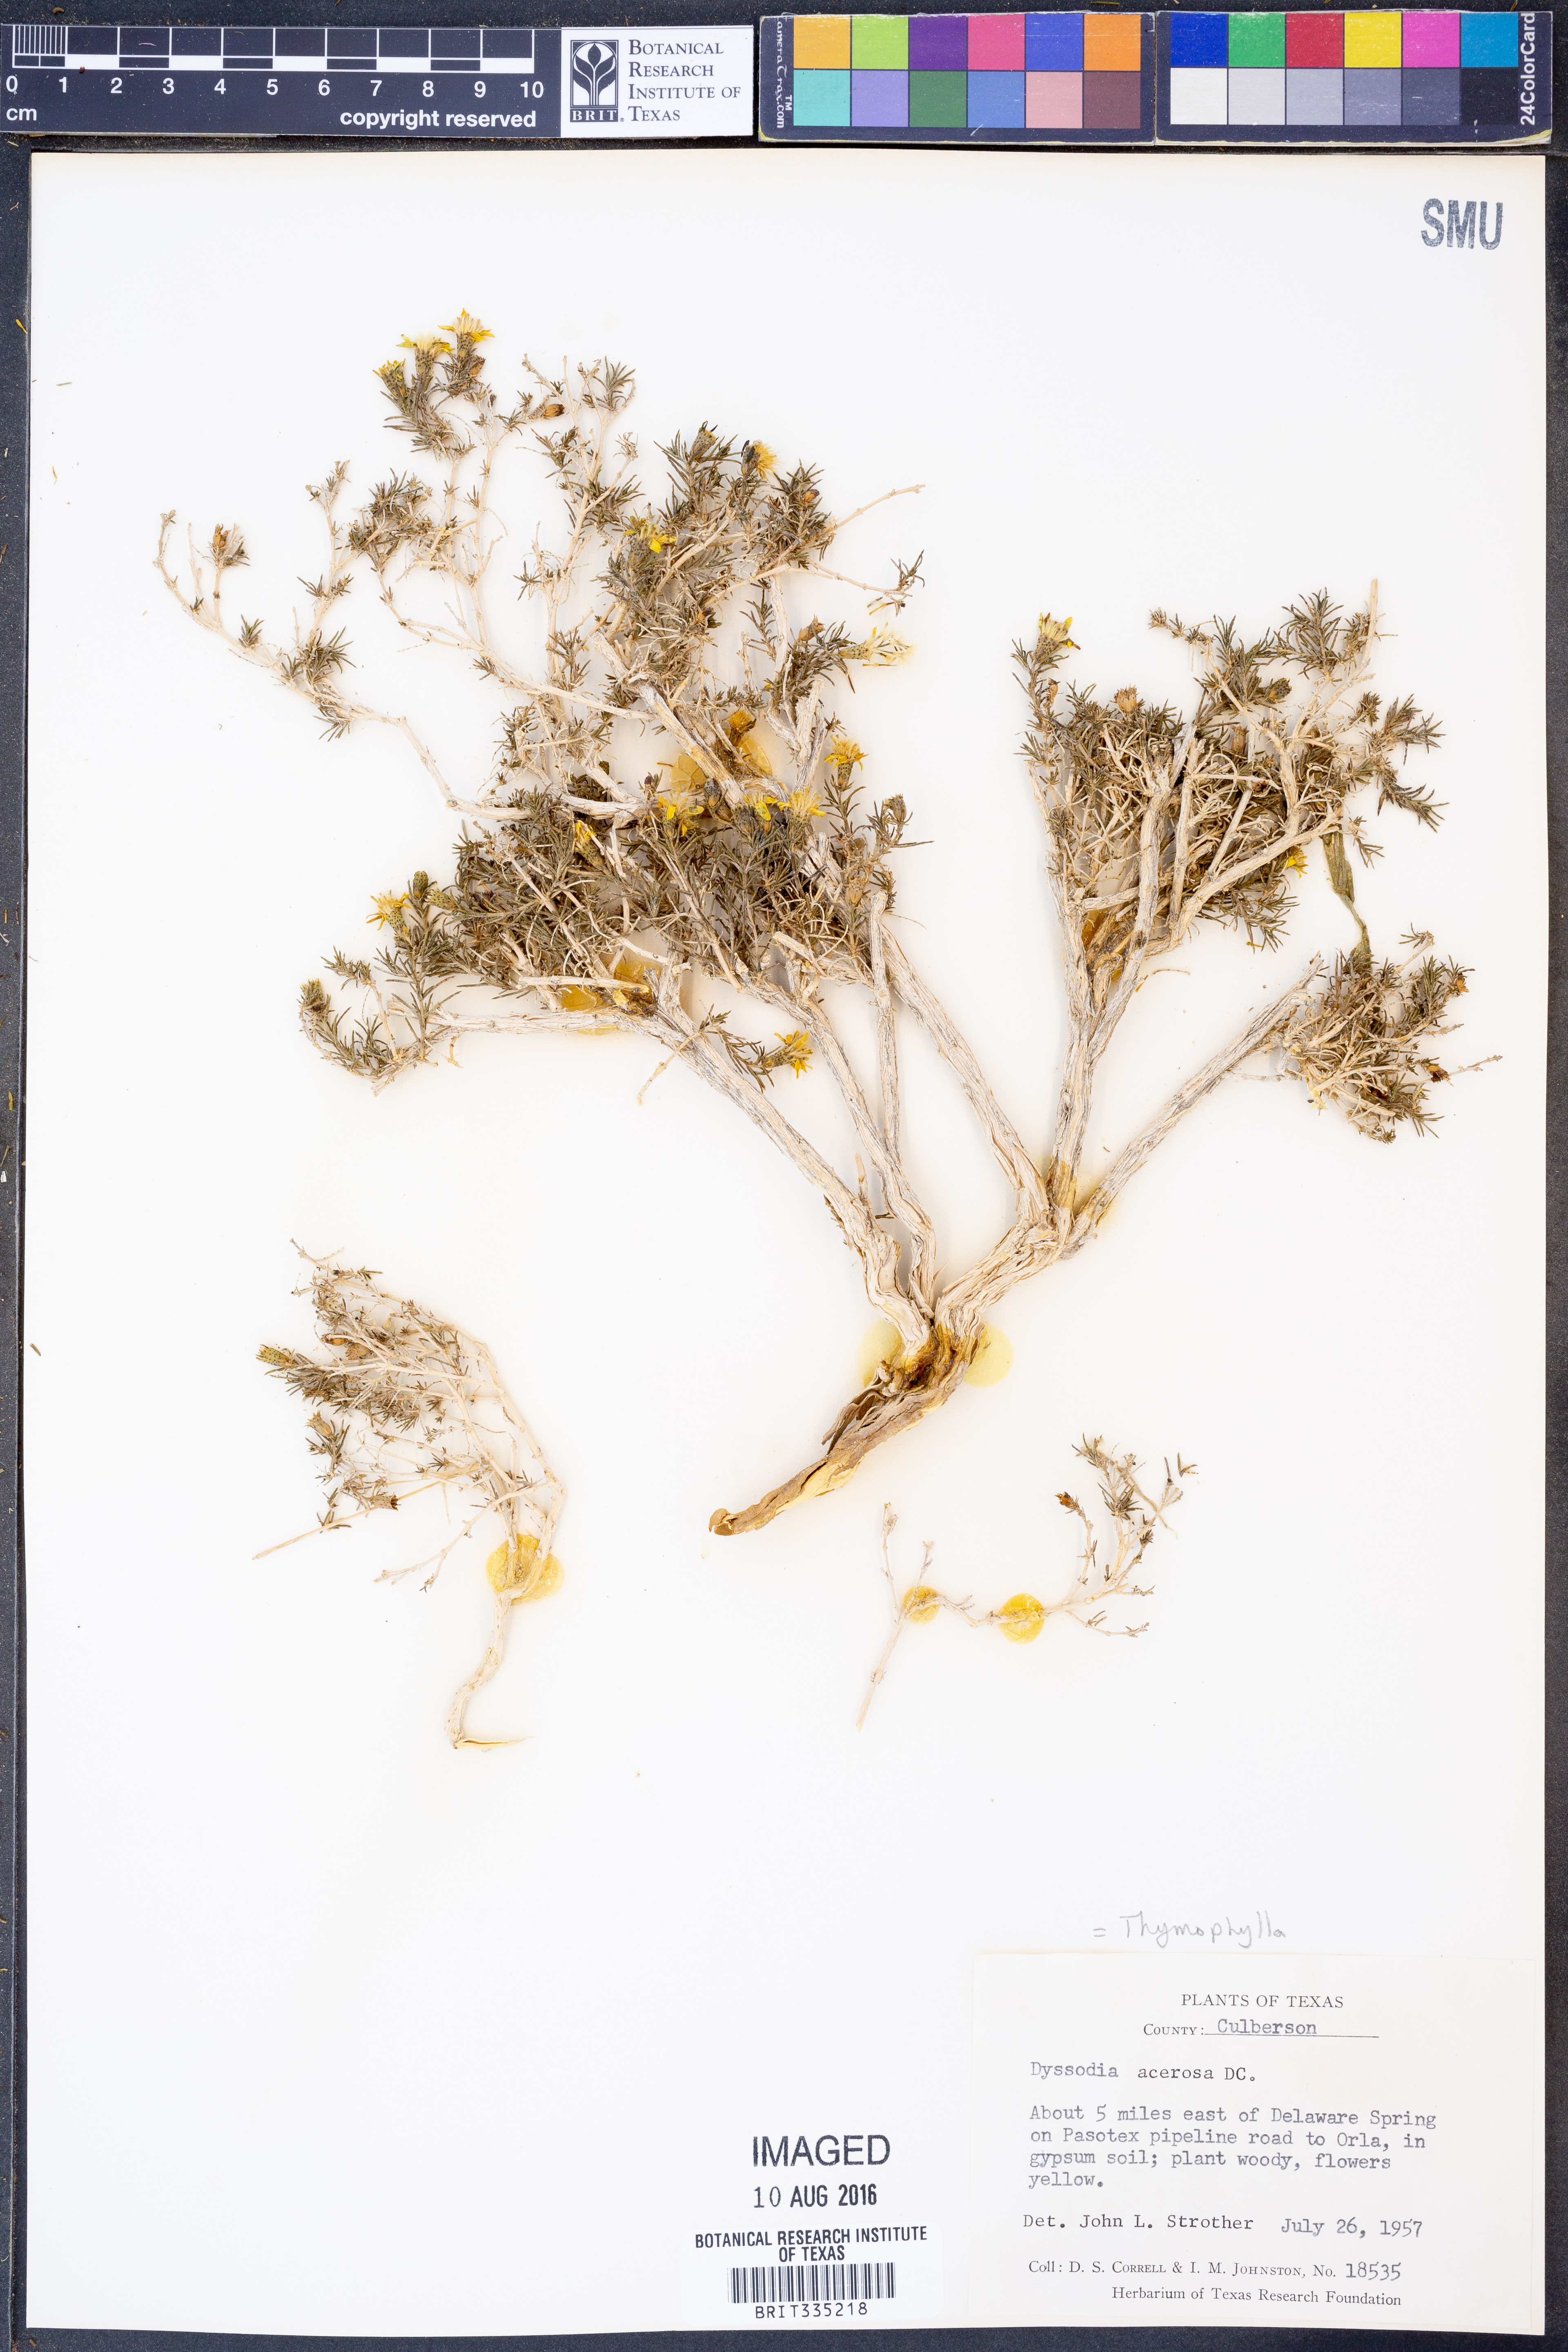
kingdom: Plantae
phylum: Tracheophyta
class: Magnoliopsida
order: Asterales
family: Asteraceae
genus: Thymophylla
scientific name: Thymophylla acerosa
